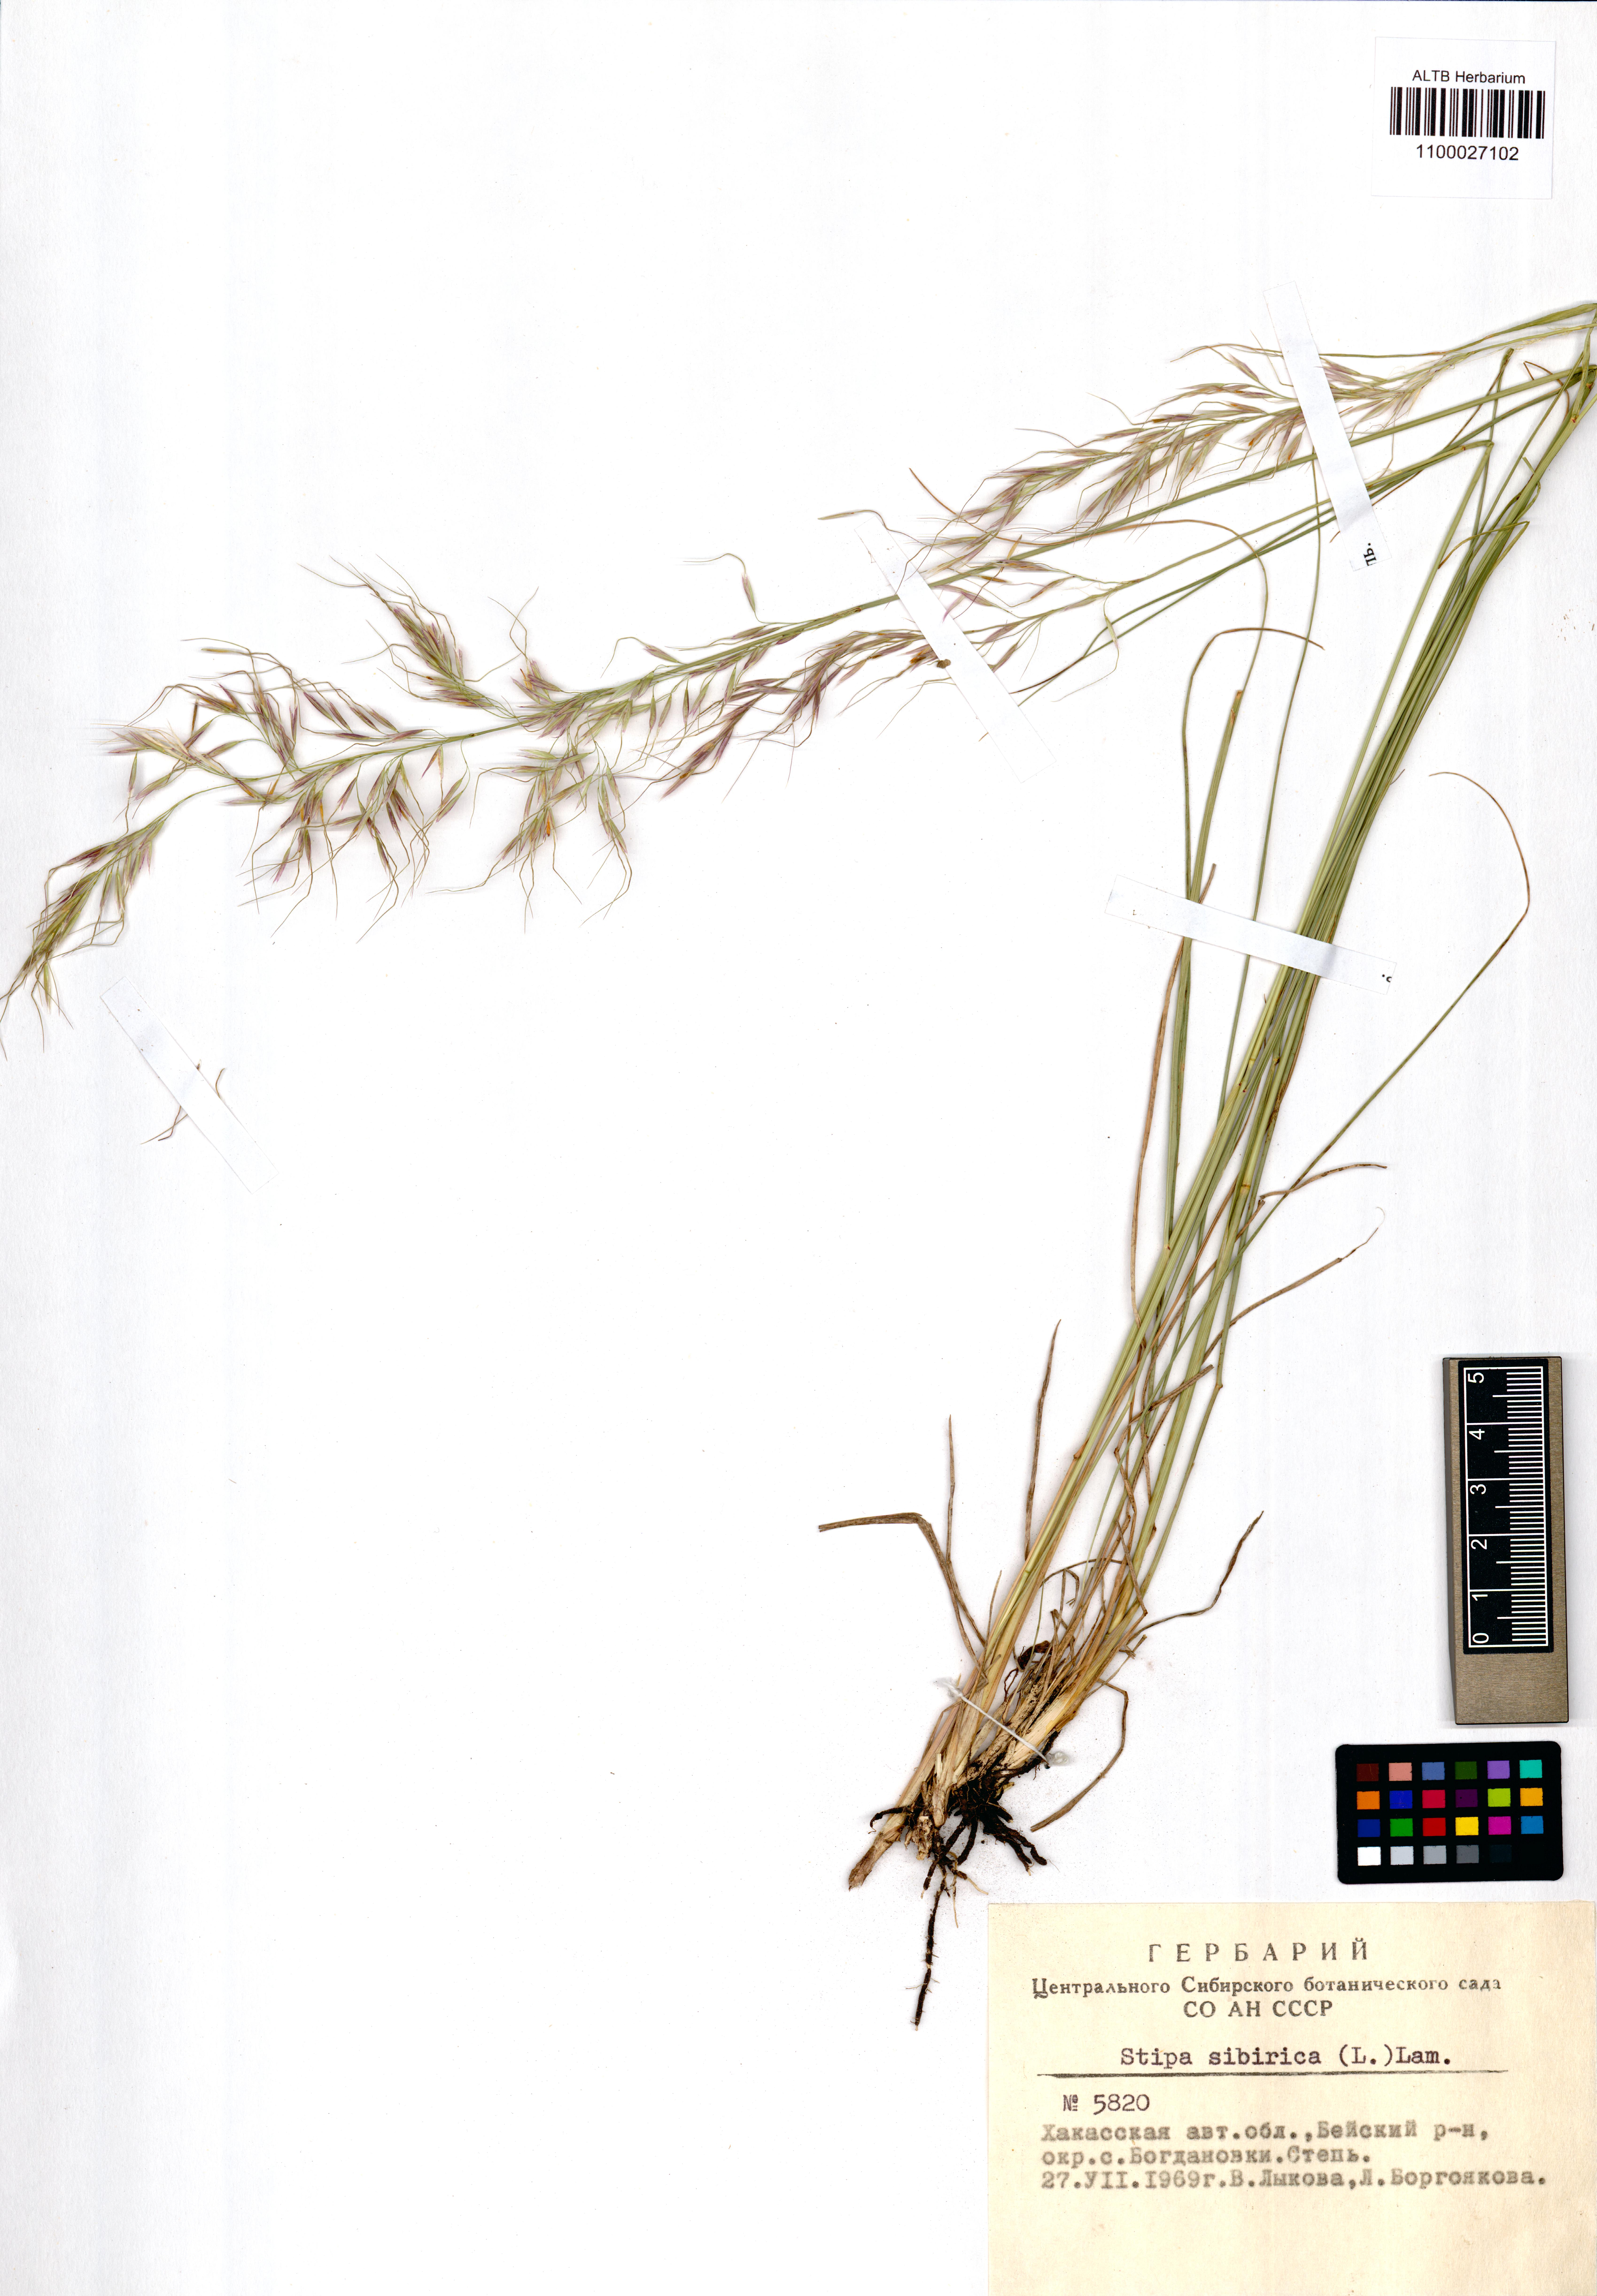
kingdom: Plantae
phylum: Tracheophyta
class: Liliopsida
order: Poales
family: Poaceae
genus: Achnatherum
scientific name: Achnatherum sibiricum
